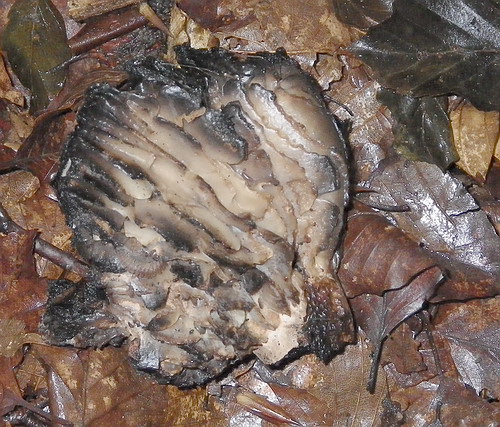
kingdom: Fungi
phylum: Basidiomycota
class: Agaricomycetes
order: Russulales
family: Russulaceae
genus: Russula
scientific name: Russula adusta
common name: sværtende skørhat
